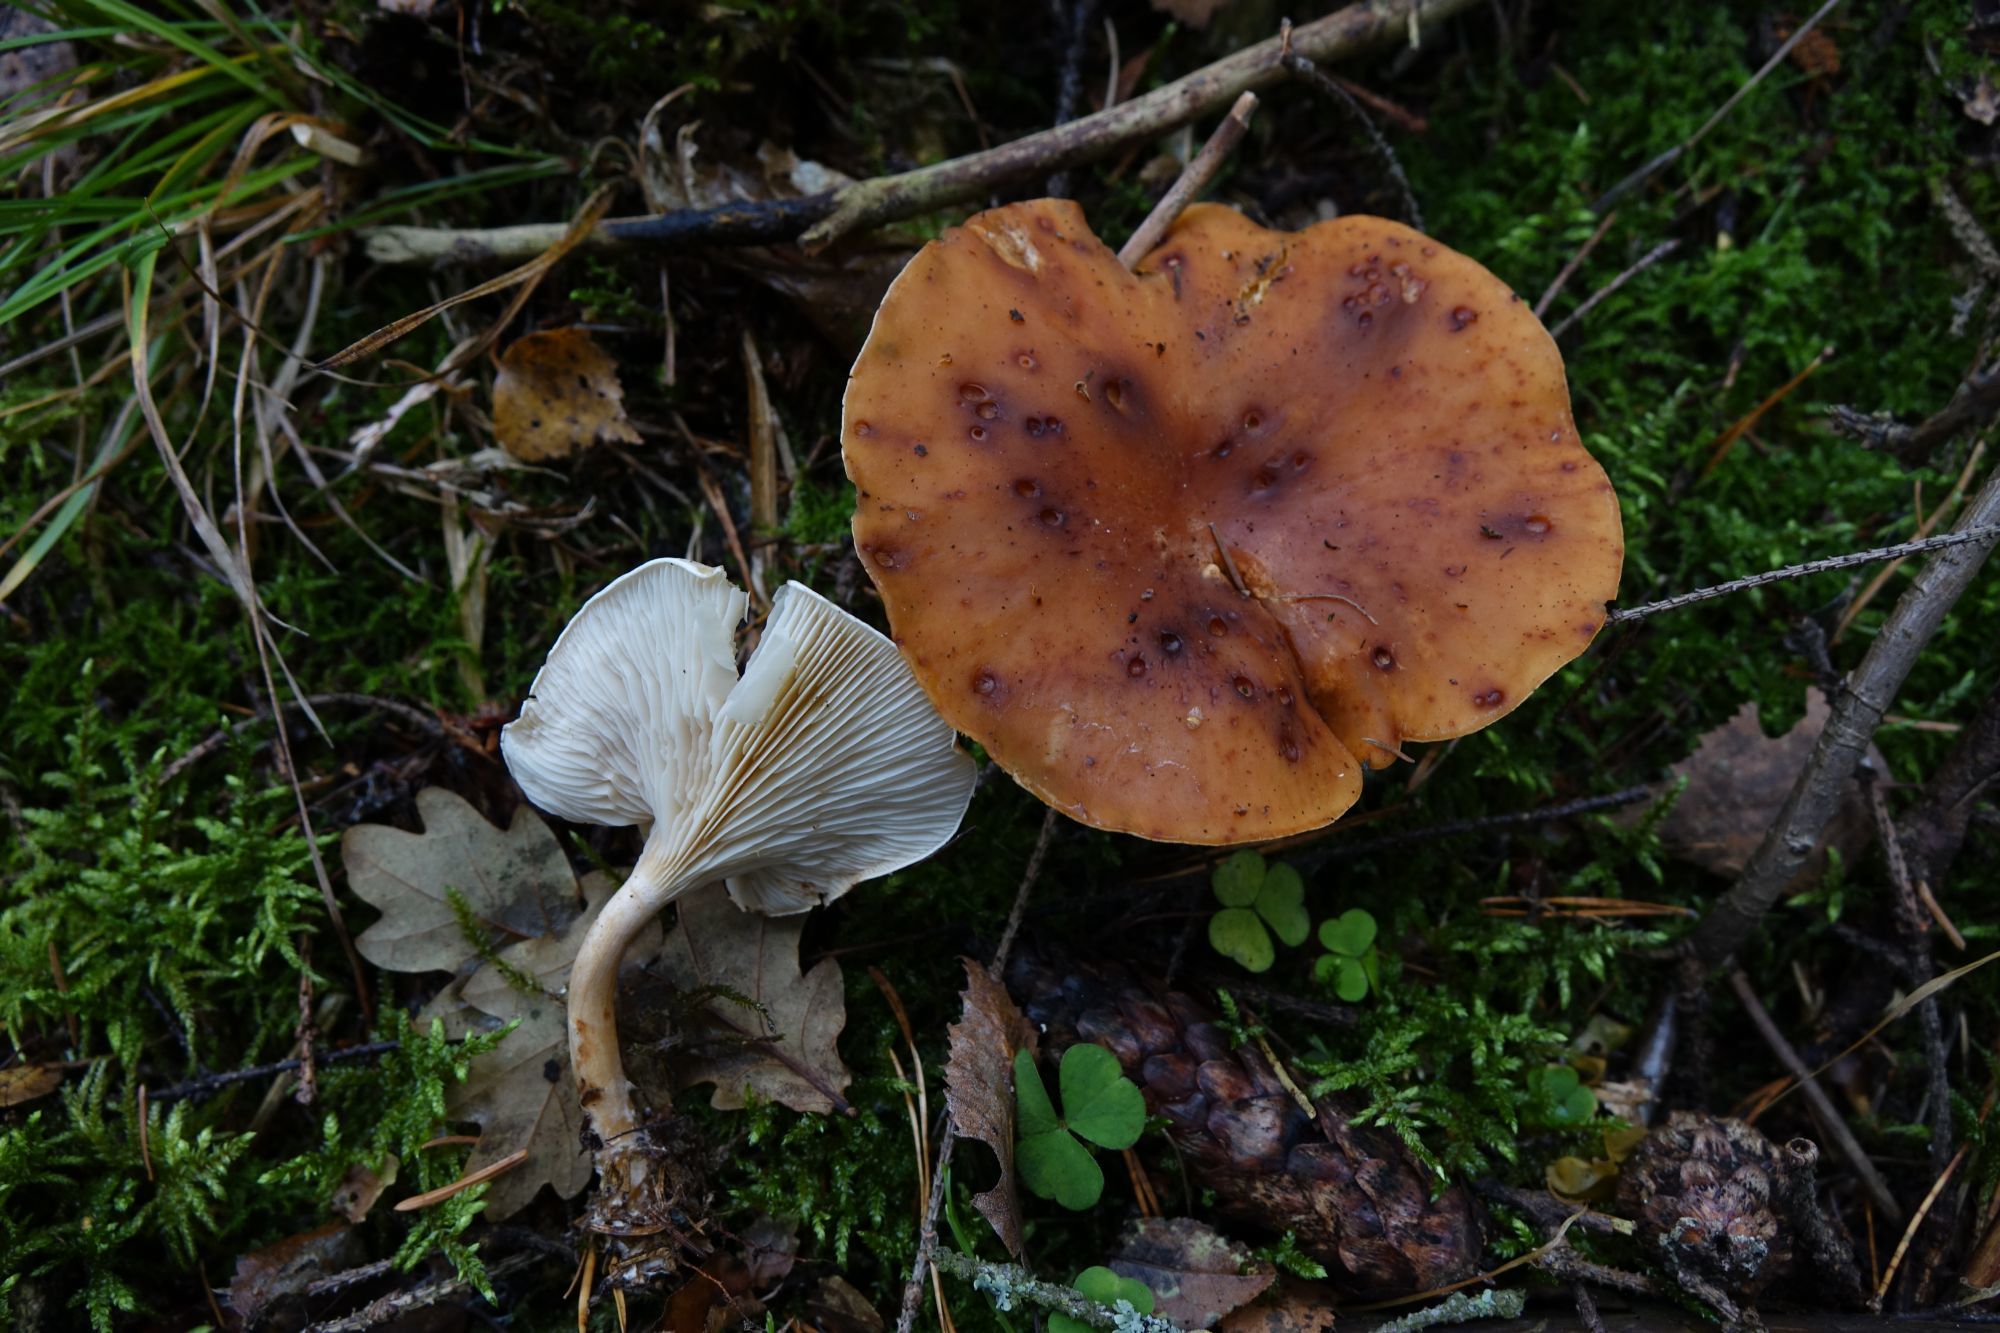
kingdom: Fungi
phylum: Basidiomycota
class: Agaricomycetes
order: Agaricales
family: Tricholomataceae
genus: Paralepista
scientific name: Paralepista gilva
